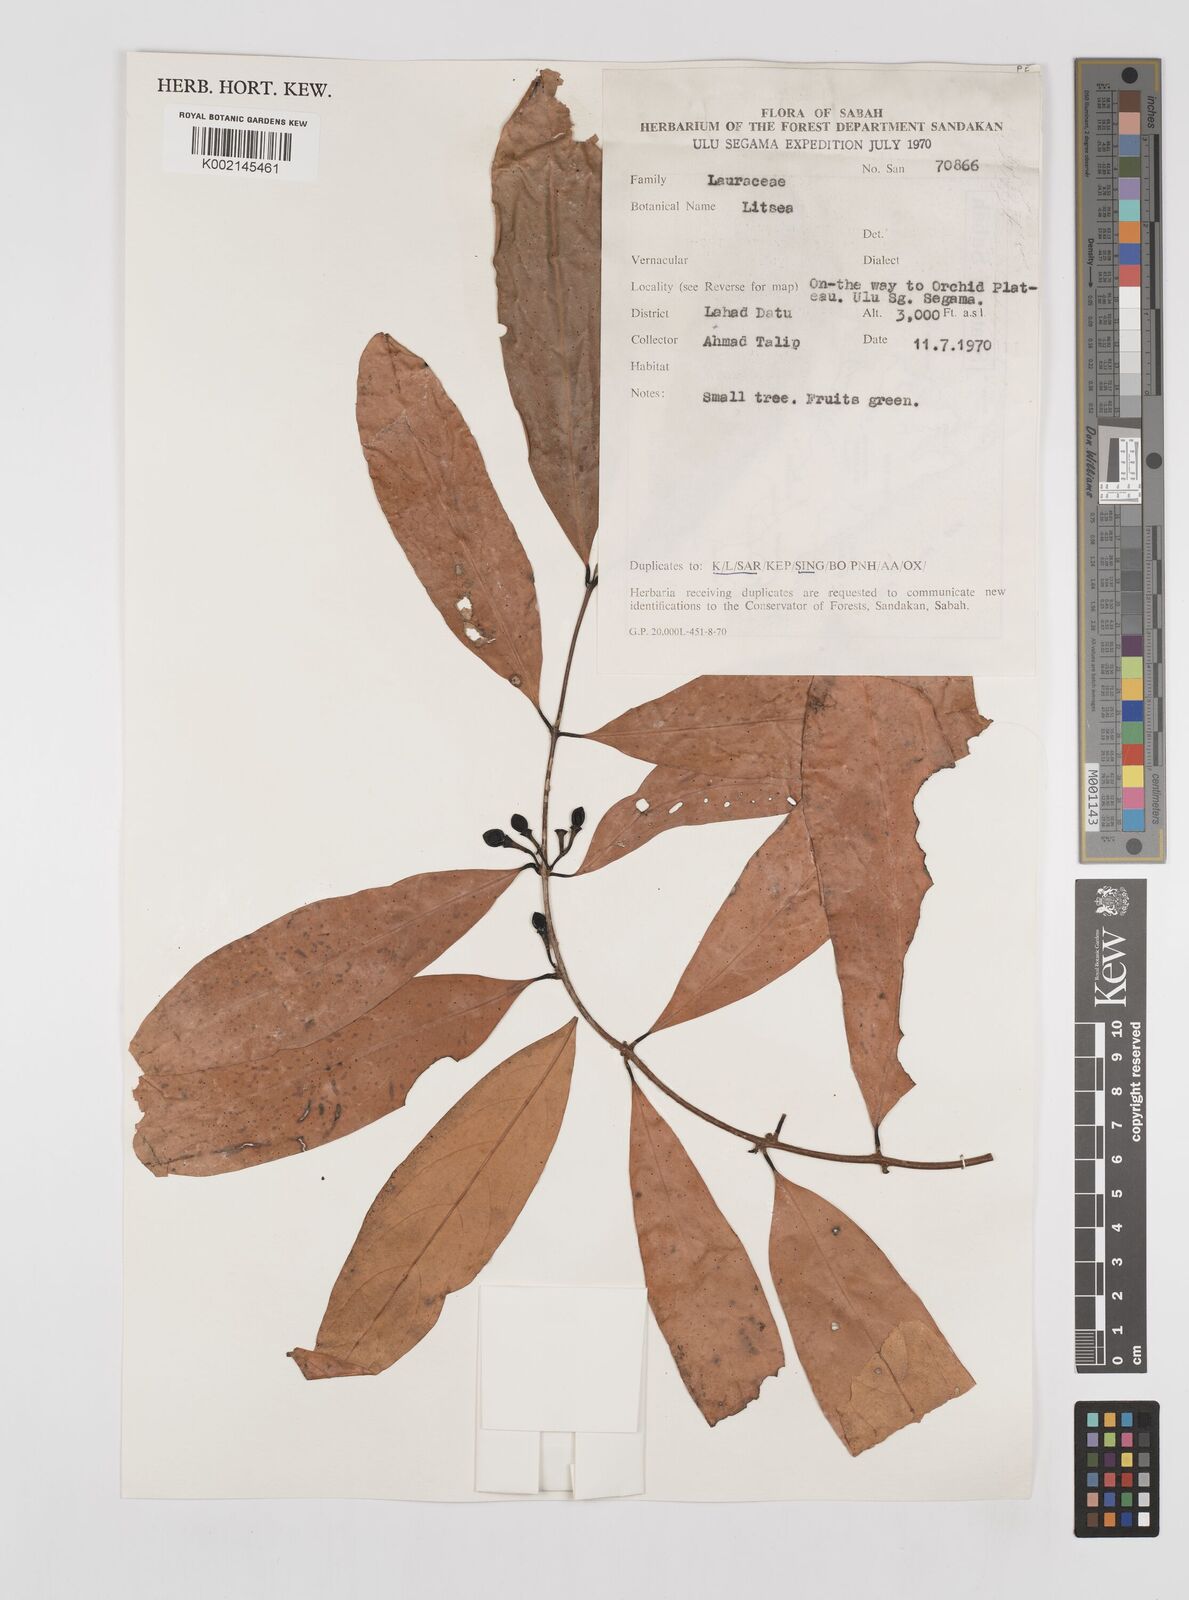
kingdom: Plantae
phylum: Tracheophyta
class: Magnoliopsida
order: Laurales
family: Lauraceae
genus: Litsea
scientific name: Litsea
